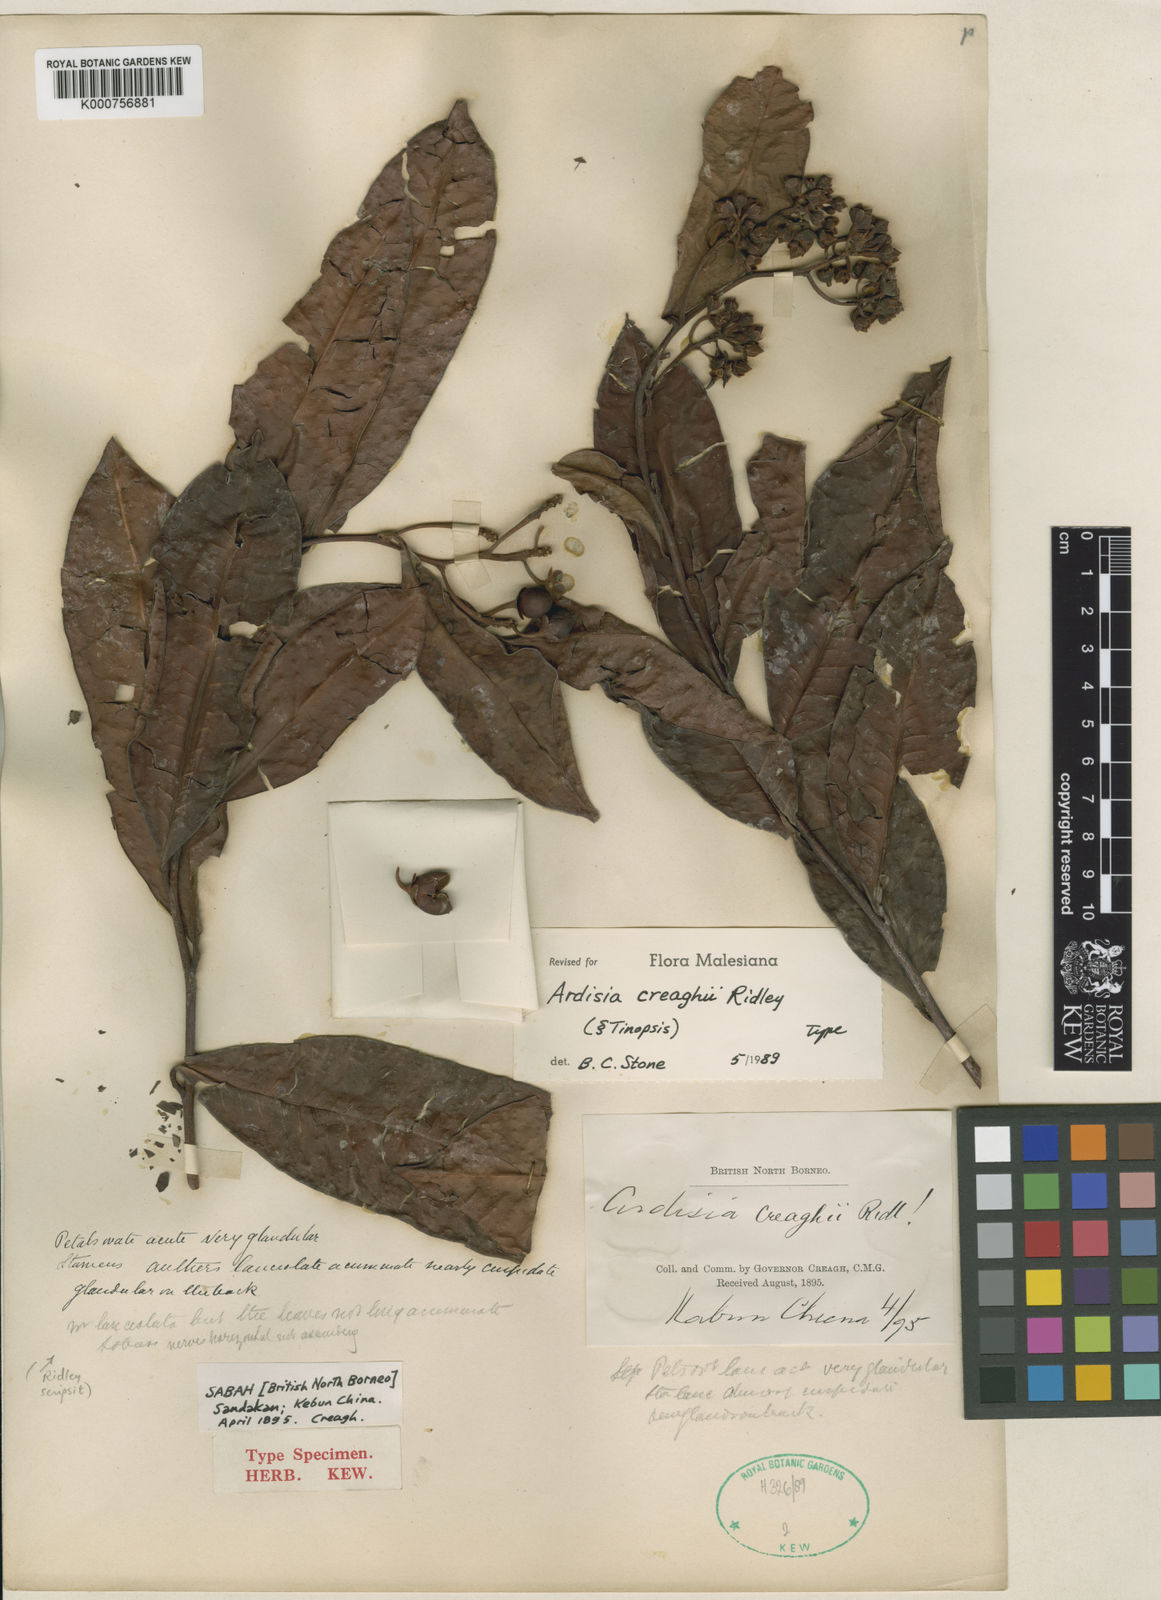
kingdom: Plantae
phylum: Tracheophyta
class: Magnoliopsida
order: Ericales
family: Primulaceae
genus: Ardisia
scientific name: Ardisia
